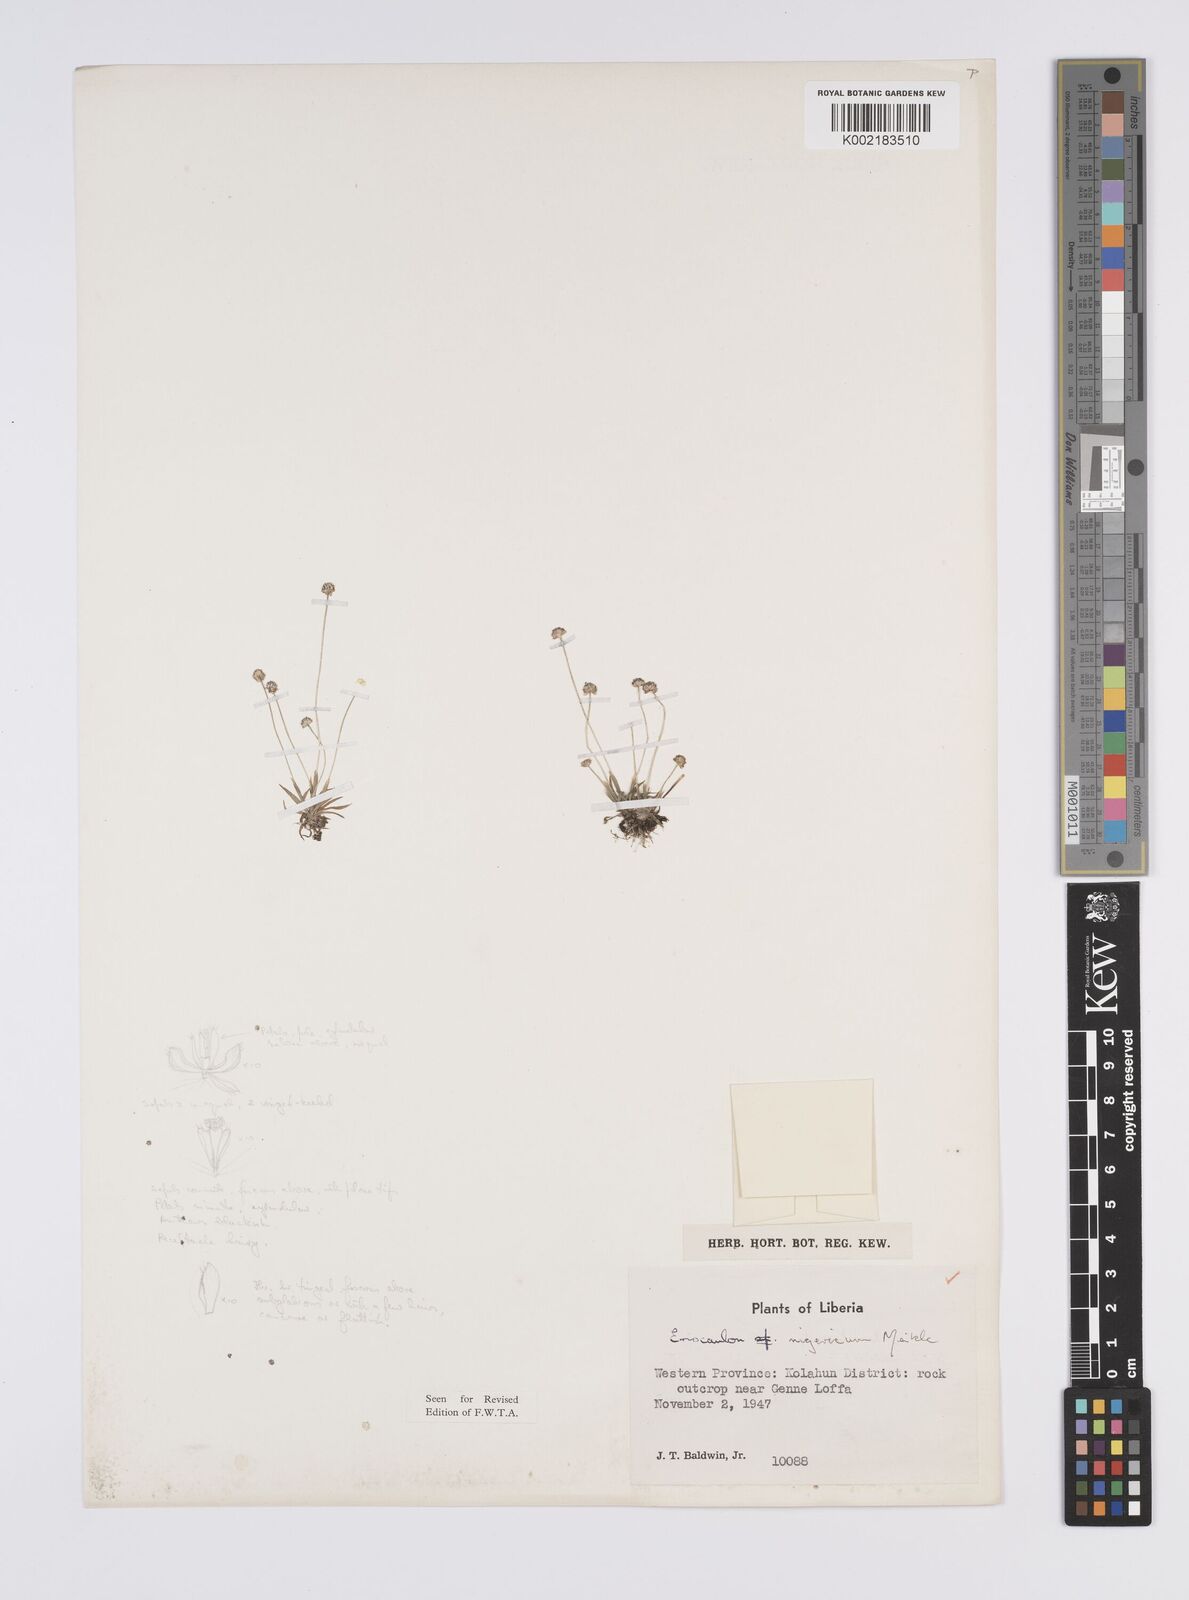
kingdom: Plantae
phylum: Tracheophyta
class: Liliopsida
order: Poales
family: Eriocaulaceae
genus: Eriocaulon
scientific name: Eriocaulon nigericum
